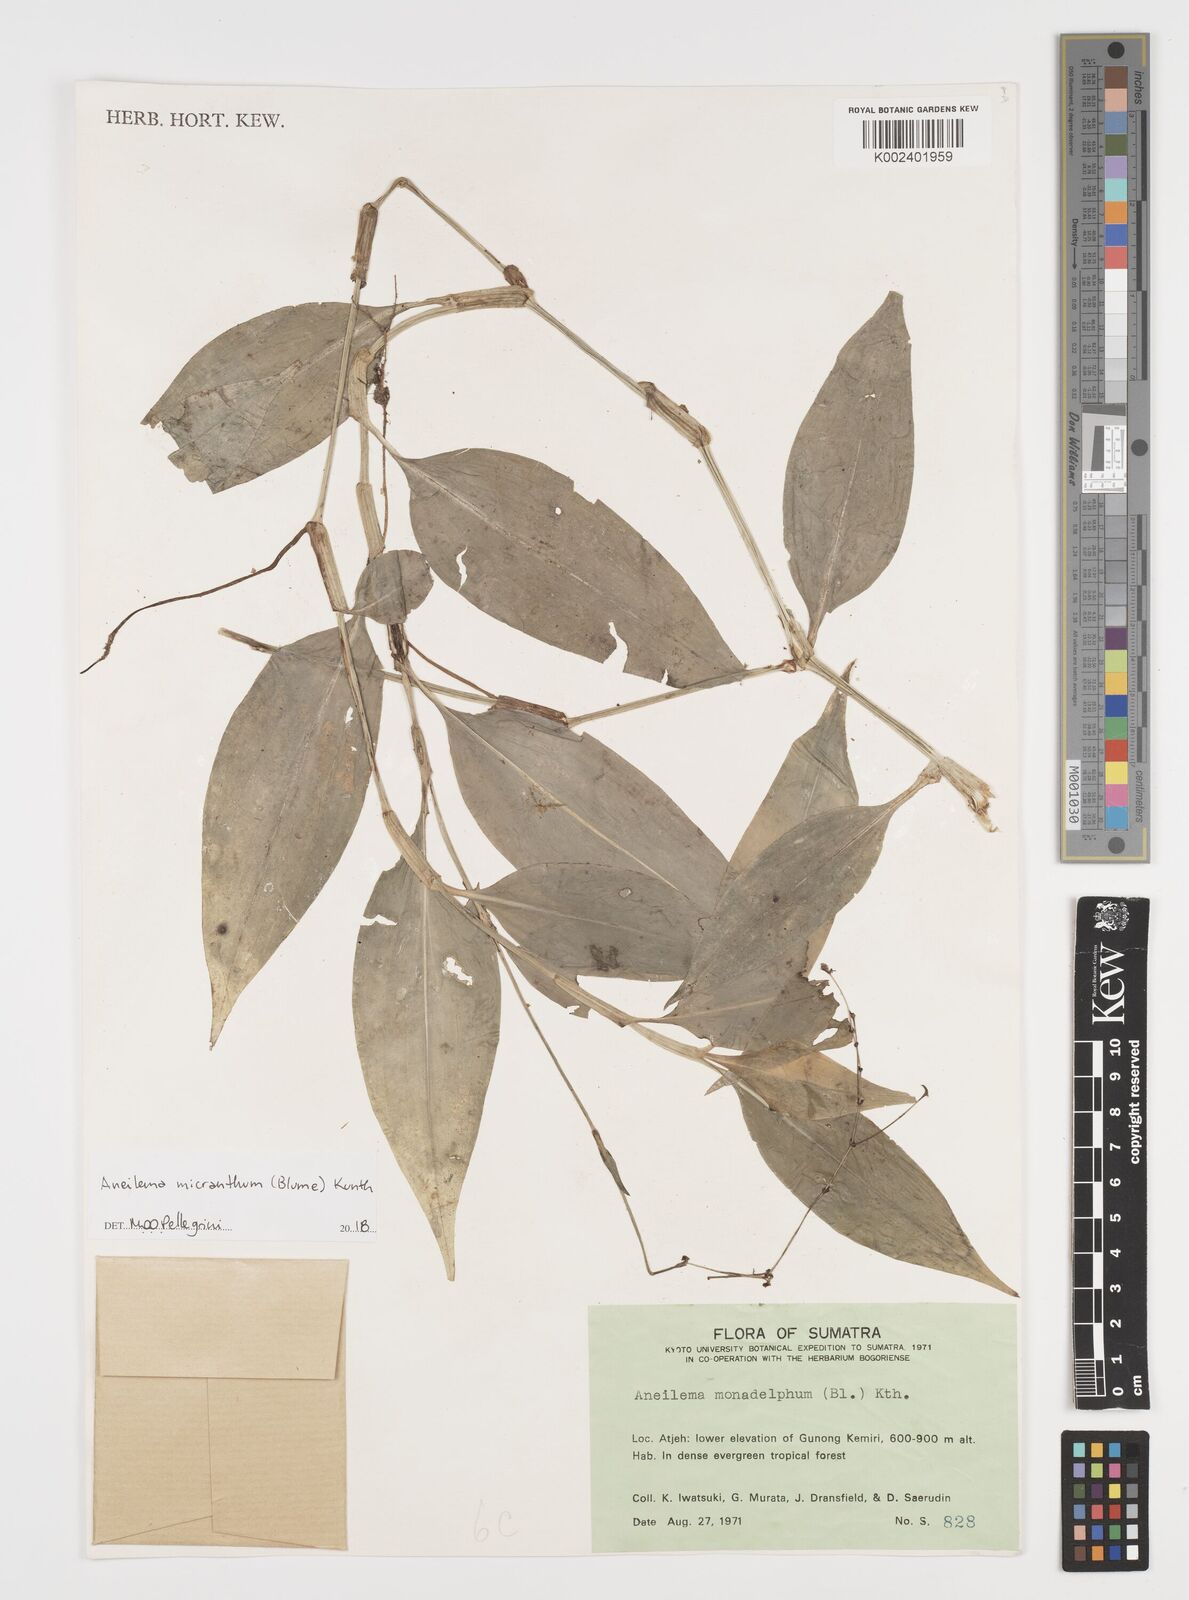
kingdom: Plantae
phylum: Tracheophyta
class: Liliopsida
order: Commelinales
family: Commelinaceae
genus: Rhopalephora
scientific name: Rhopalephora micrantha
